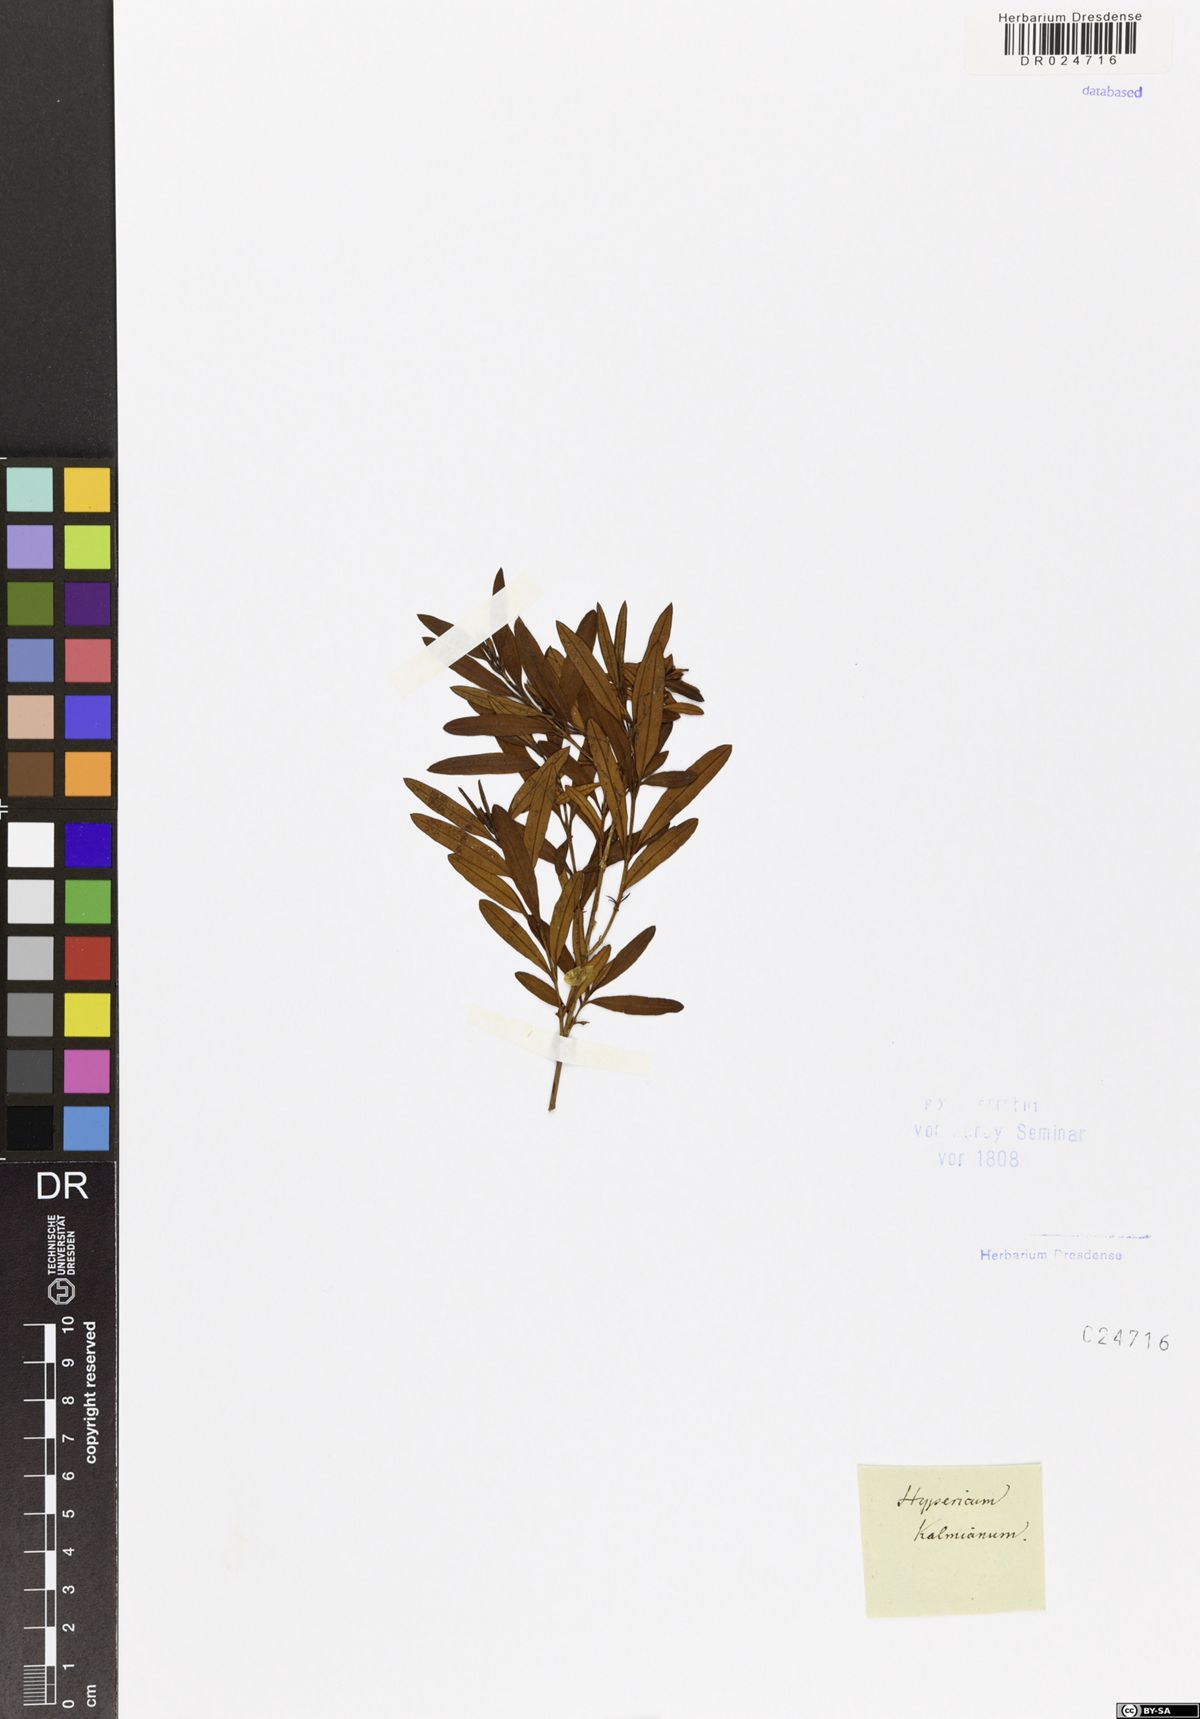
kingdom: Plantae
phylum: Tracheophyta
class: Magnoliopsida
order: Malpighiales
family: Hypericaceae
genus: Hypericum
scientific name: Hypericum kalmianum
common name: Kalm's st. john's-wort
